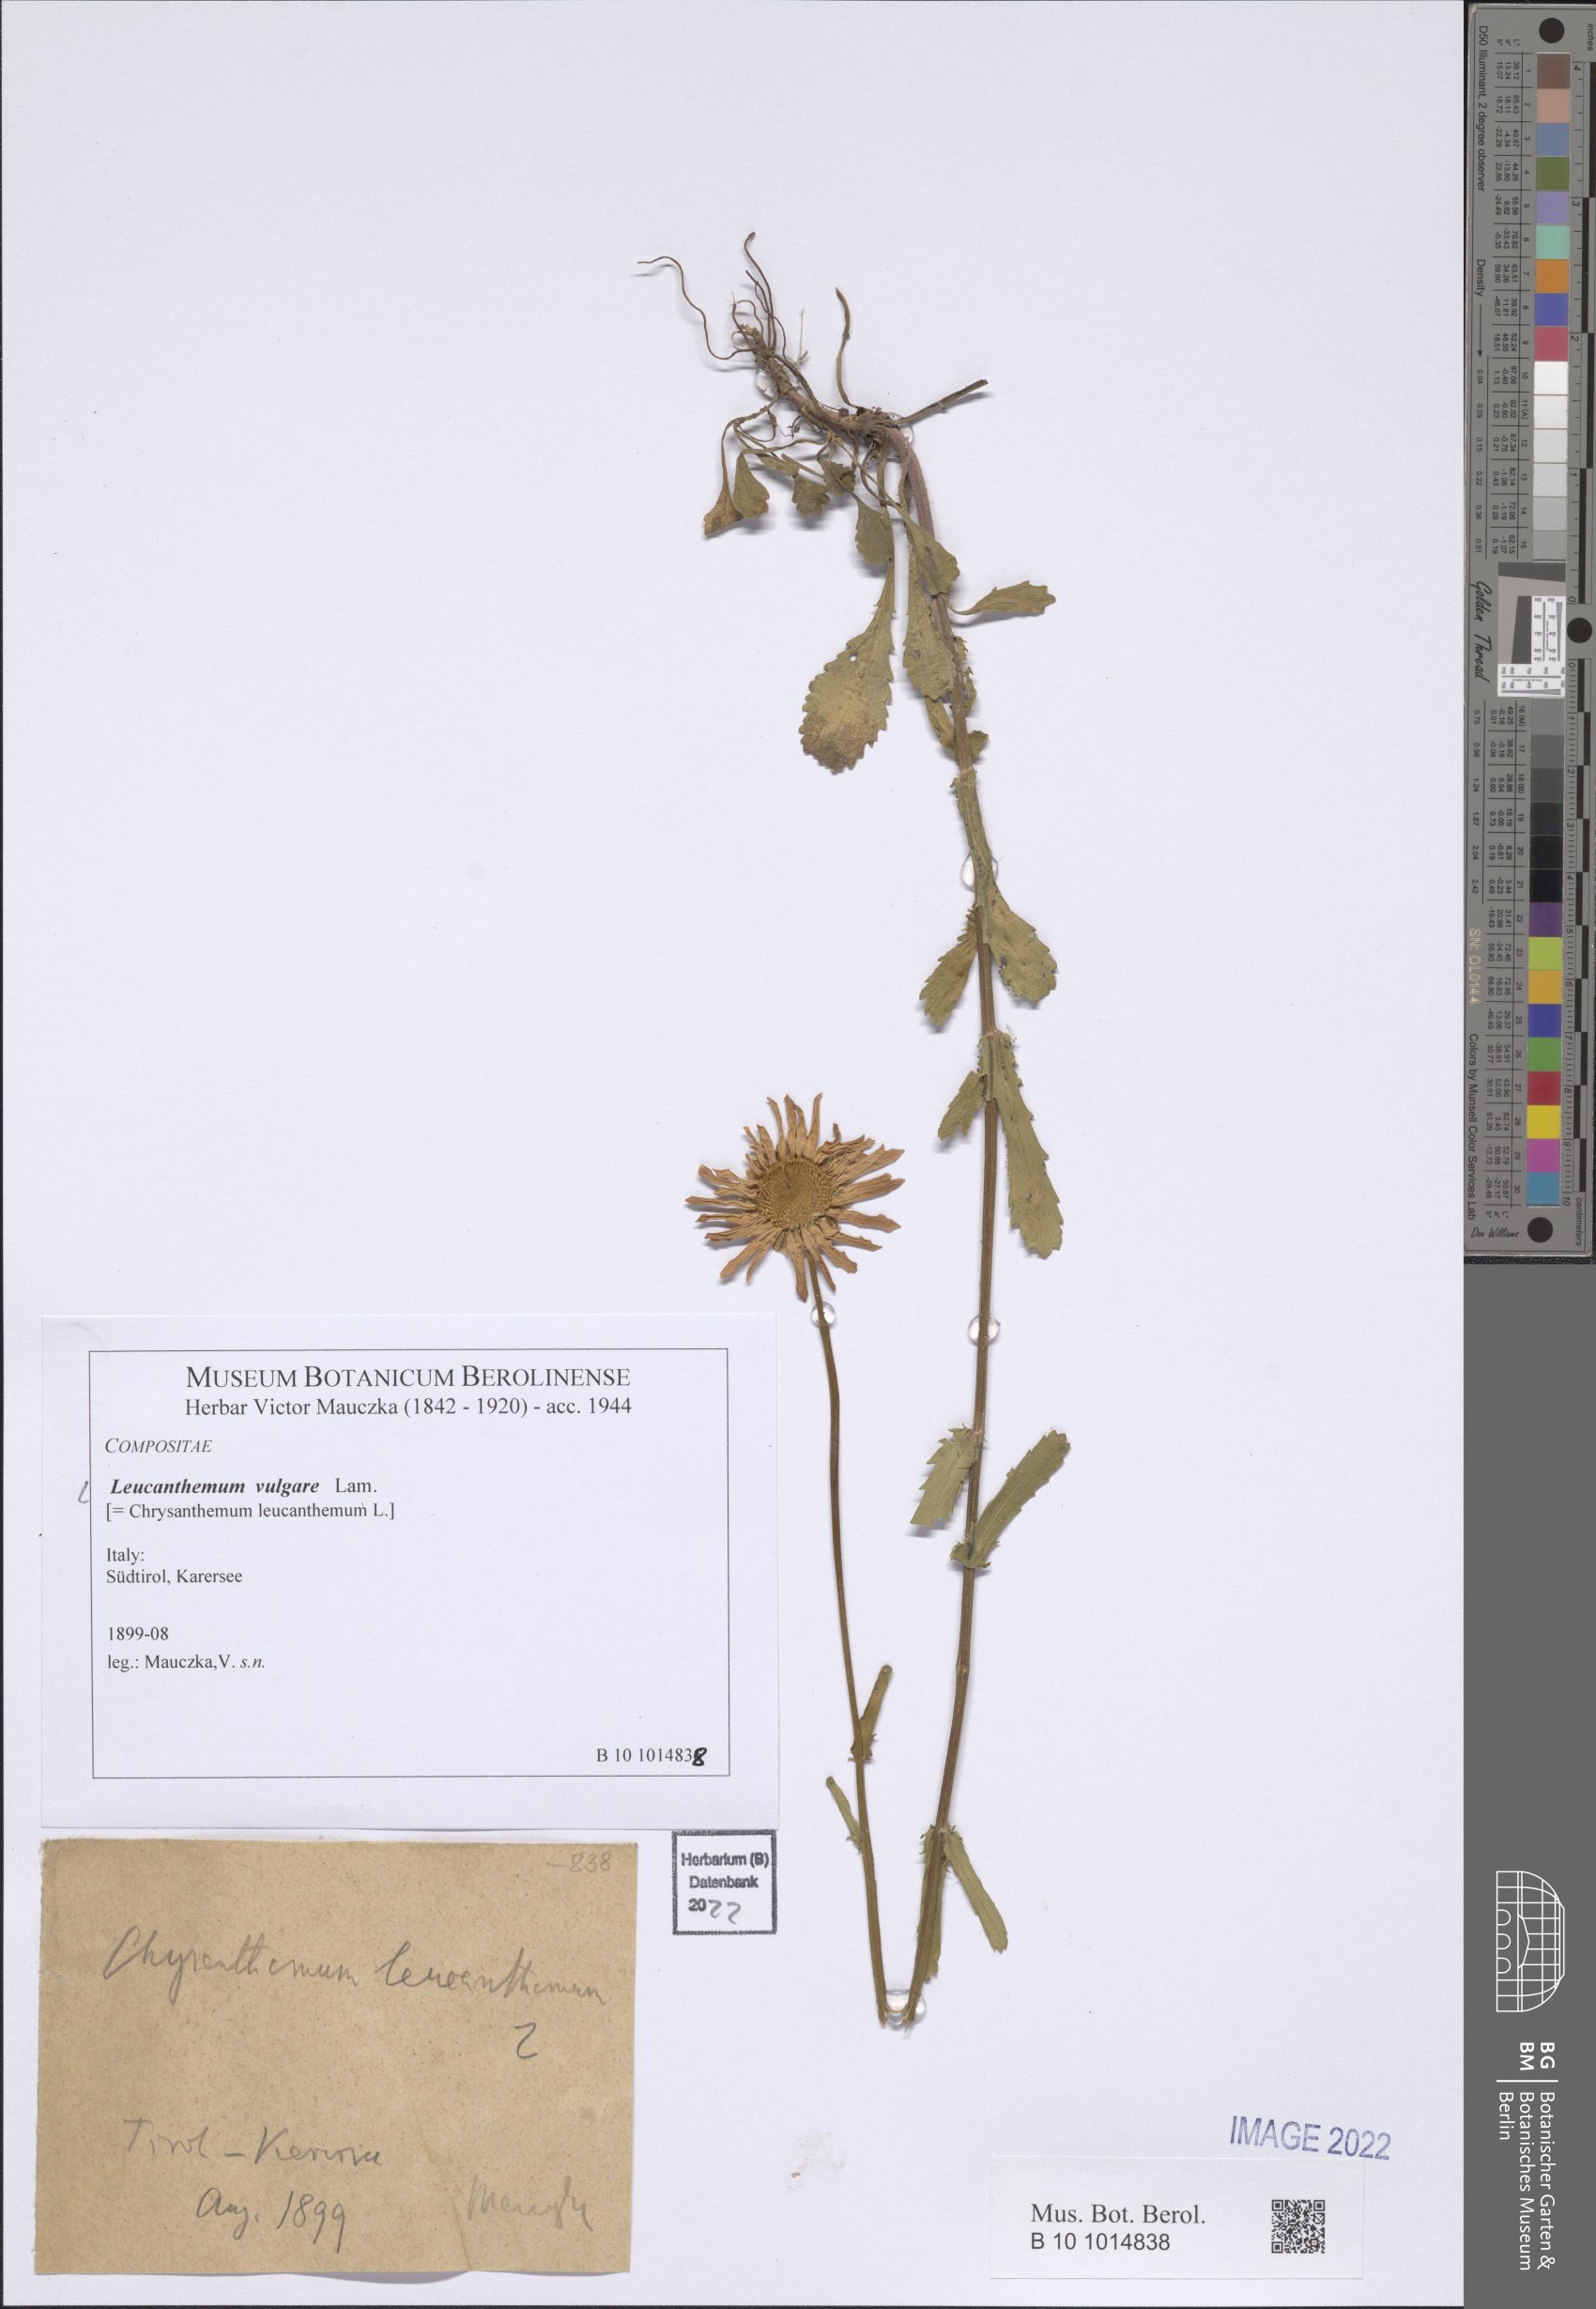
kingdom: Plantae
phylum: Tracheophyta
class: Magnoliopsida
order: Asterales
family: Asteraceae
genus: Leucanthemum
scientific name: Leucanthemum ircutianum
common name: Daisy
